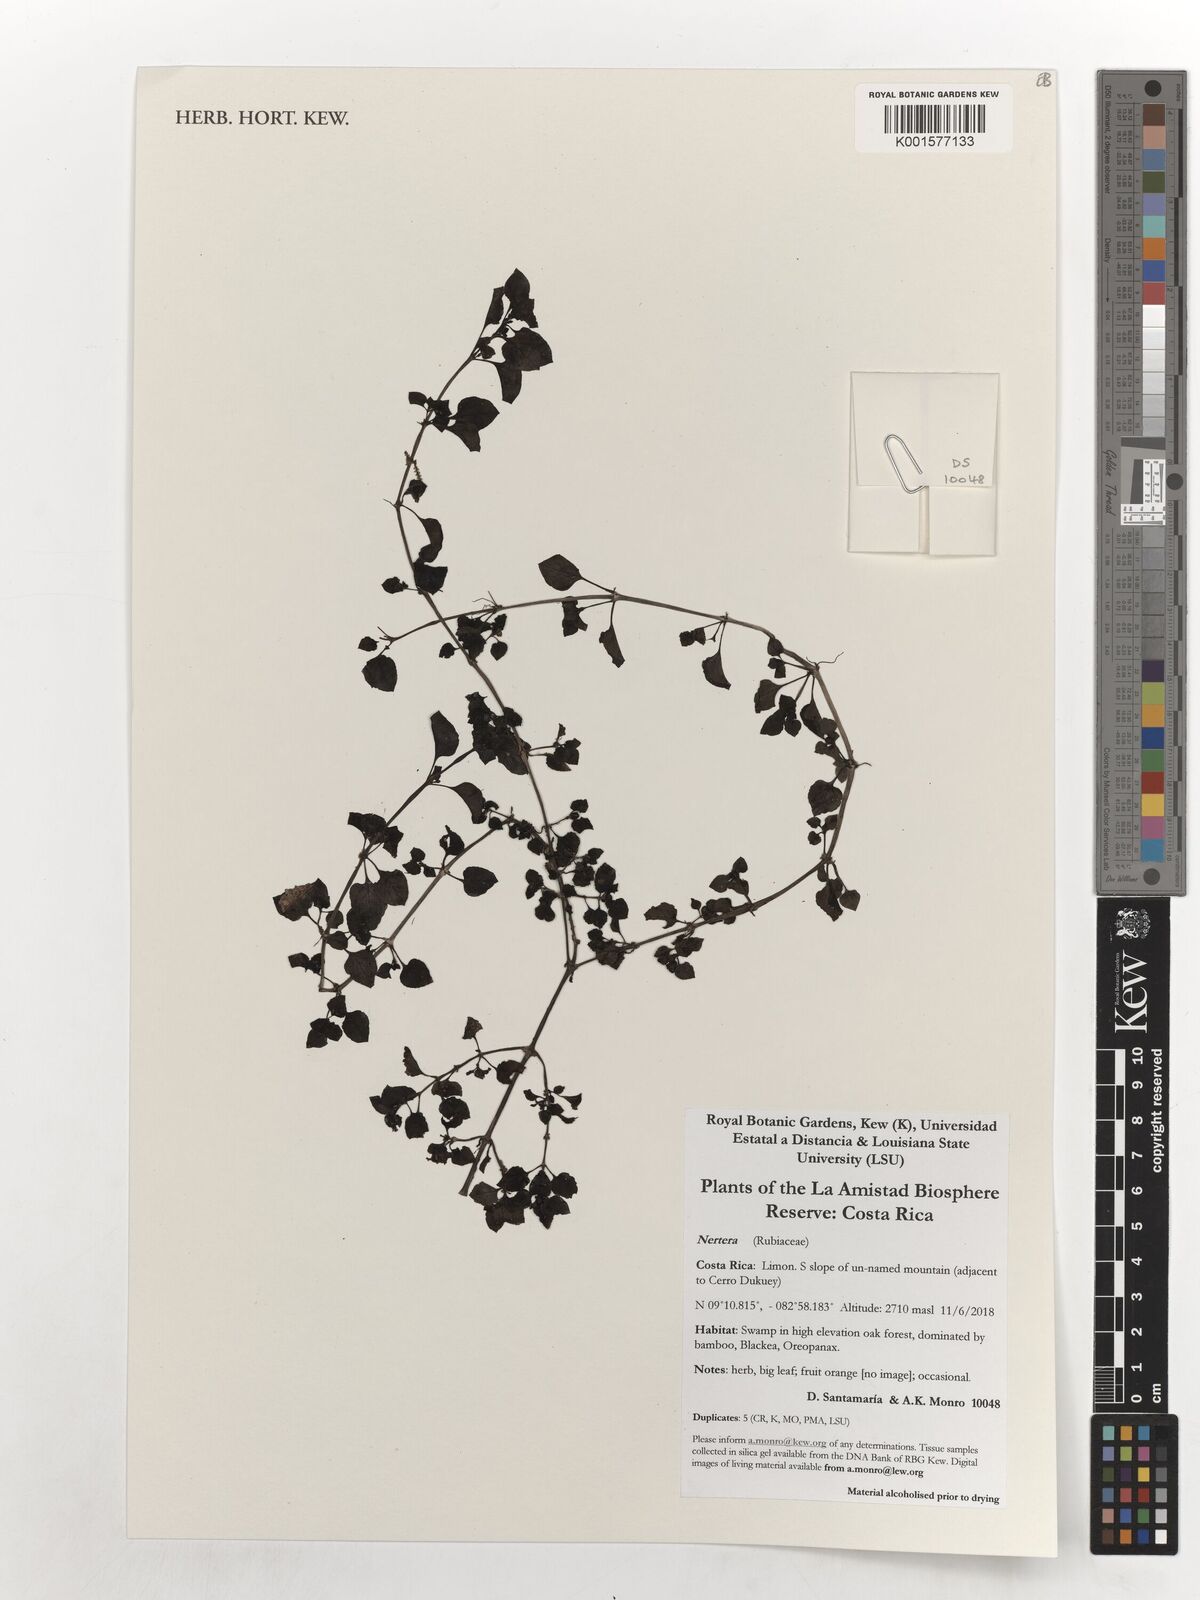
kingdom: Plantae
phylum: Tracheophyta
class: Magnoliopsida
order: Gentianales
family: Rubiaceae
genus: Nertera
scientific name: Nertera
